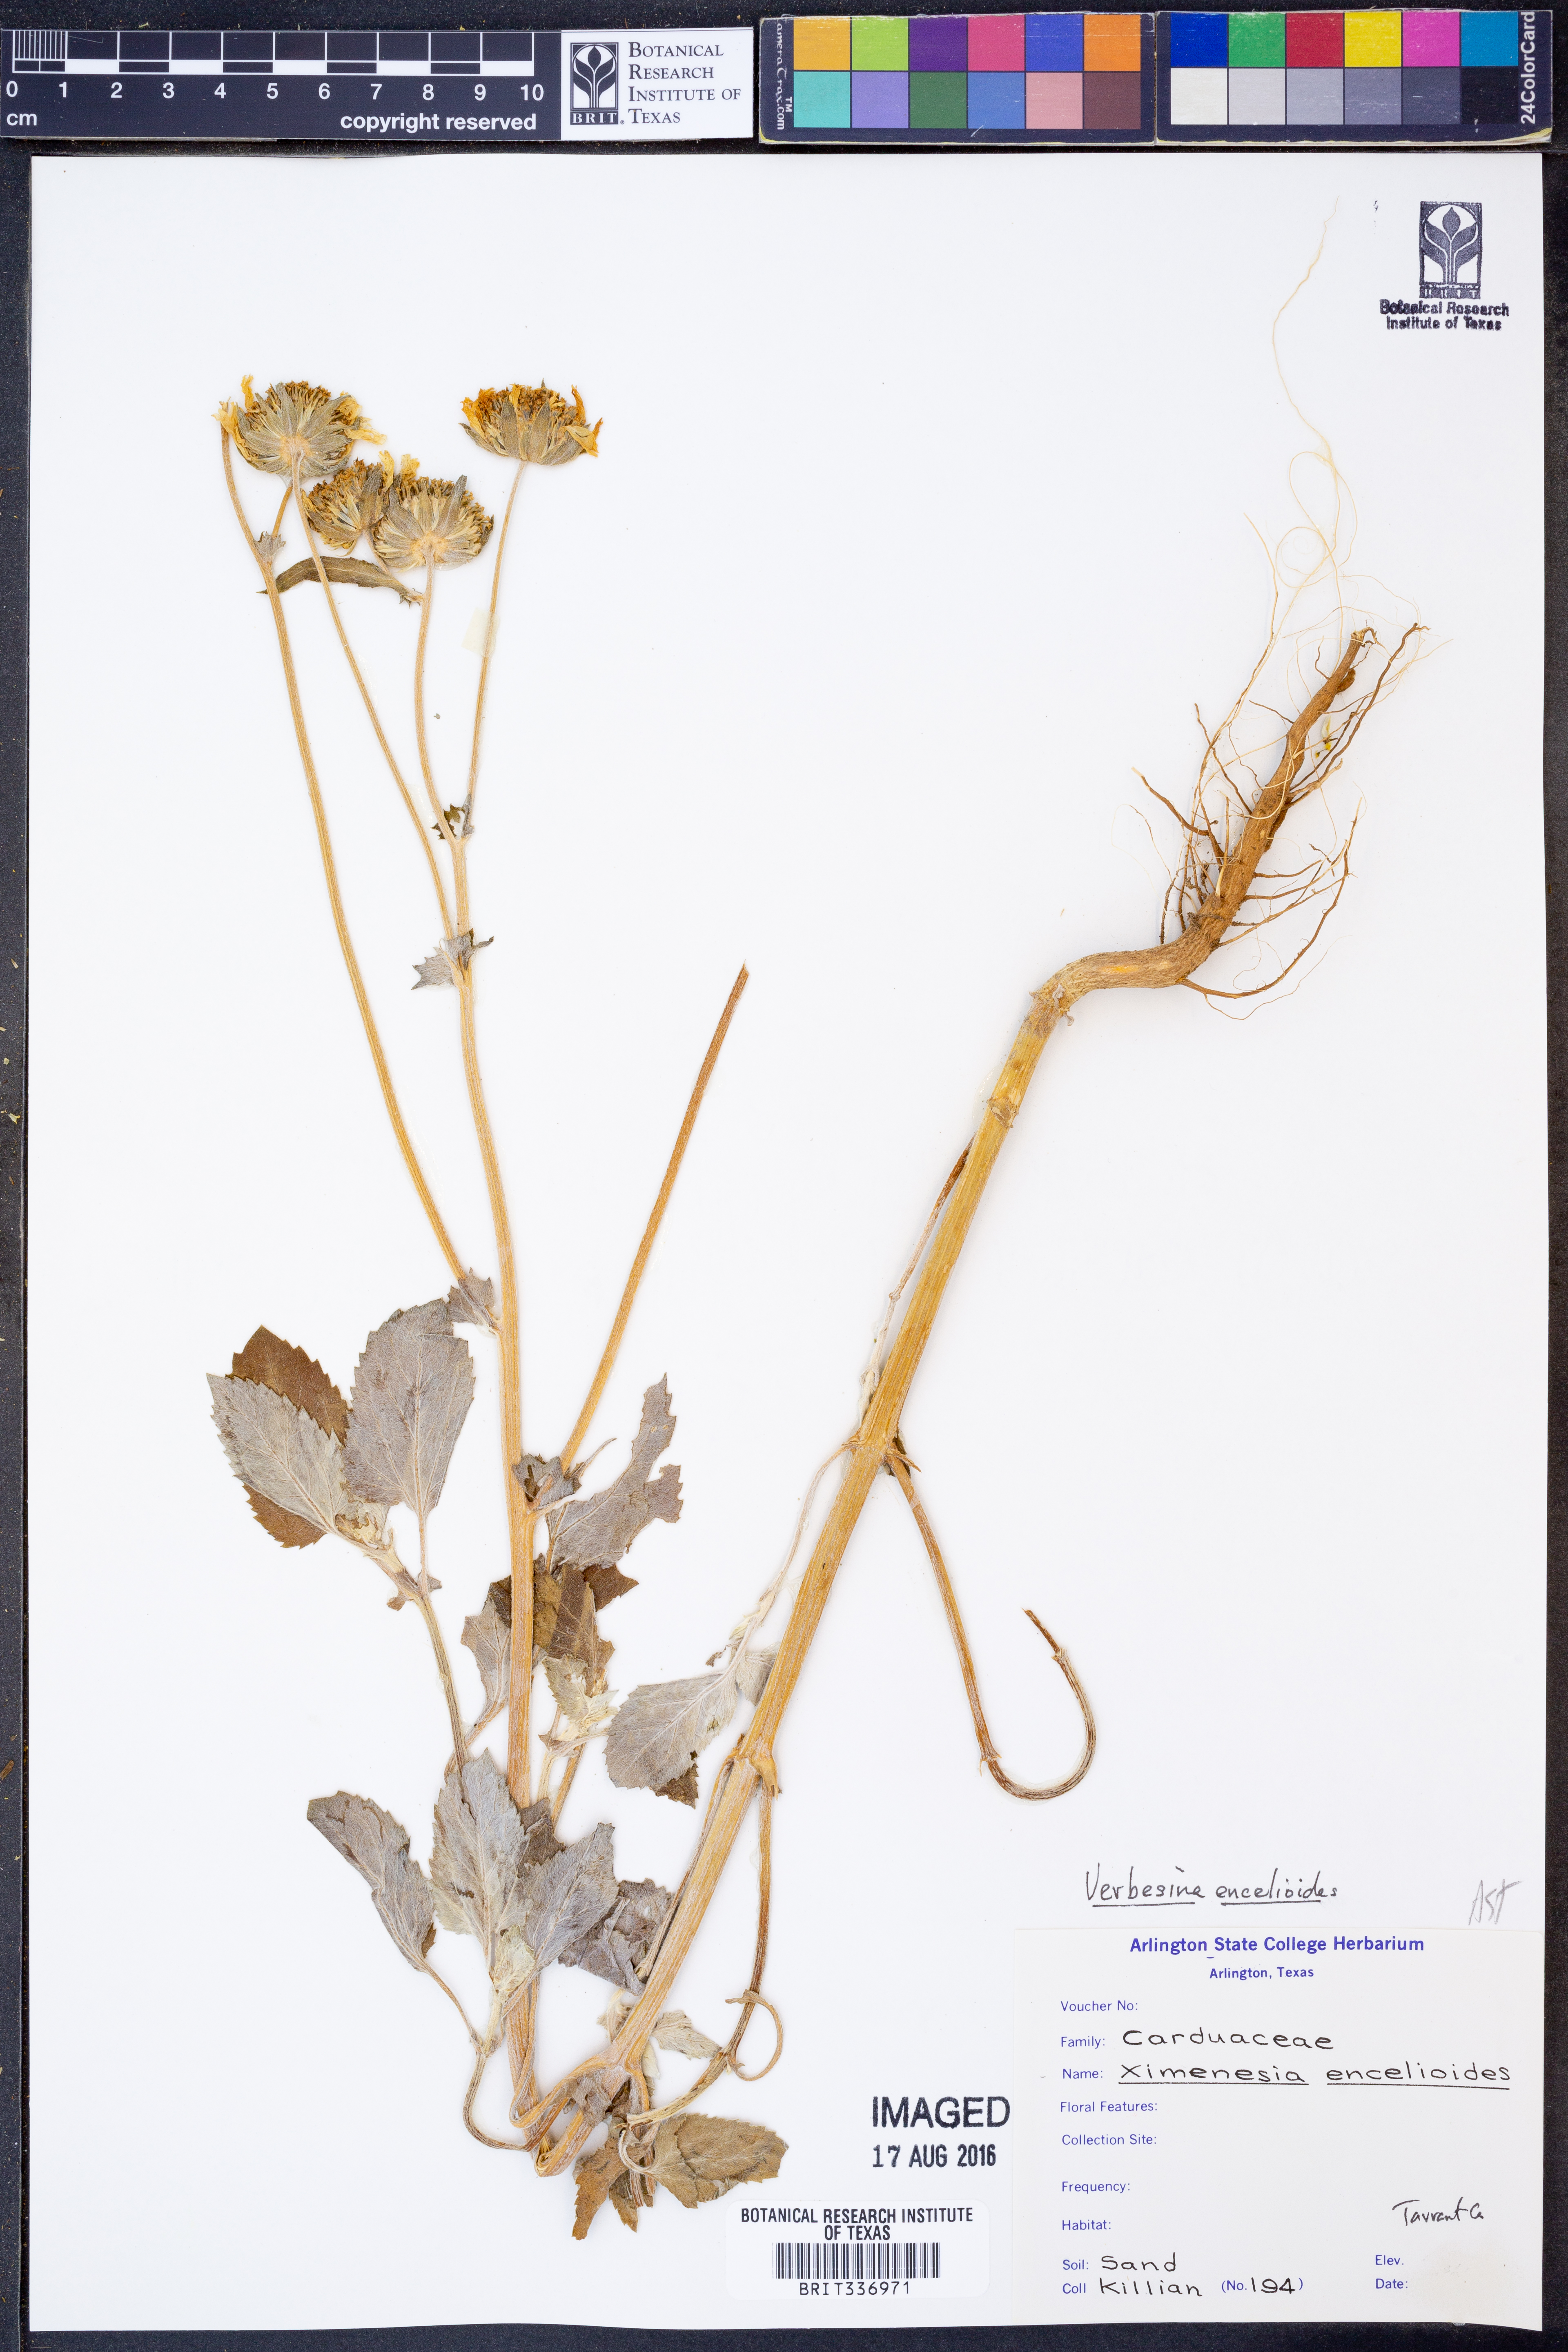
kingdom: Plantae
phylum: Tracheophyta
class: Magnoliopsida
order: Asterales
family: Asteraceae
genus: Verbesina
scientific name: Verbesina encelioides
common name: Golden crownbeard
